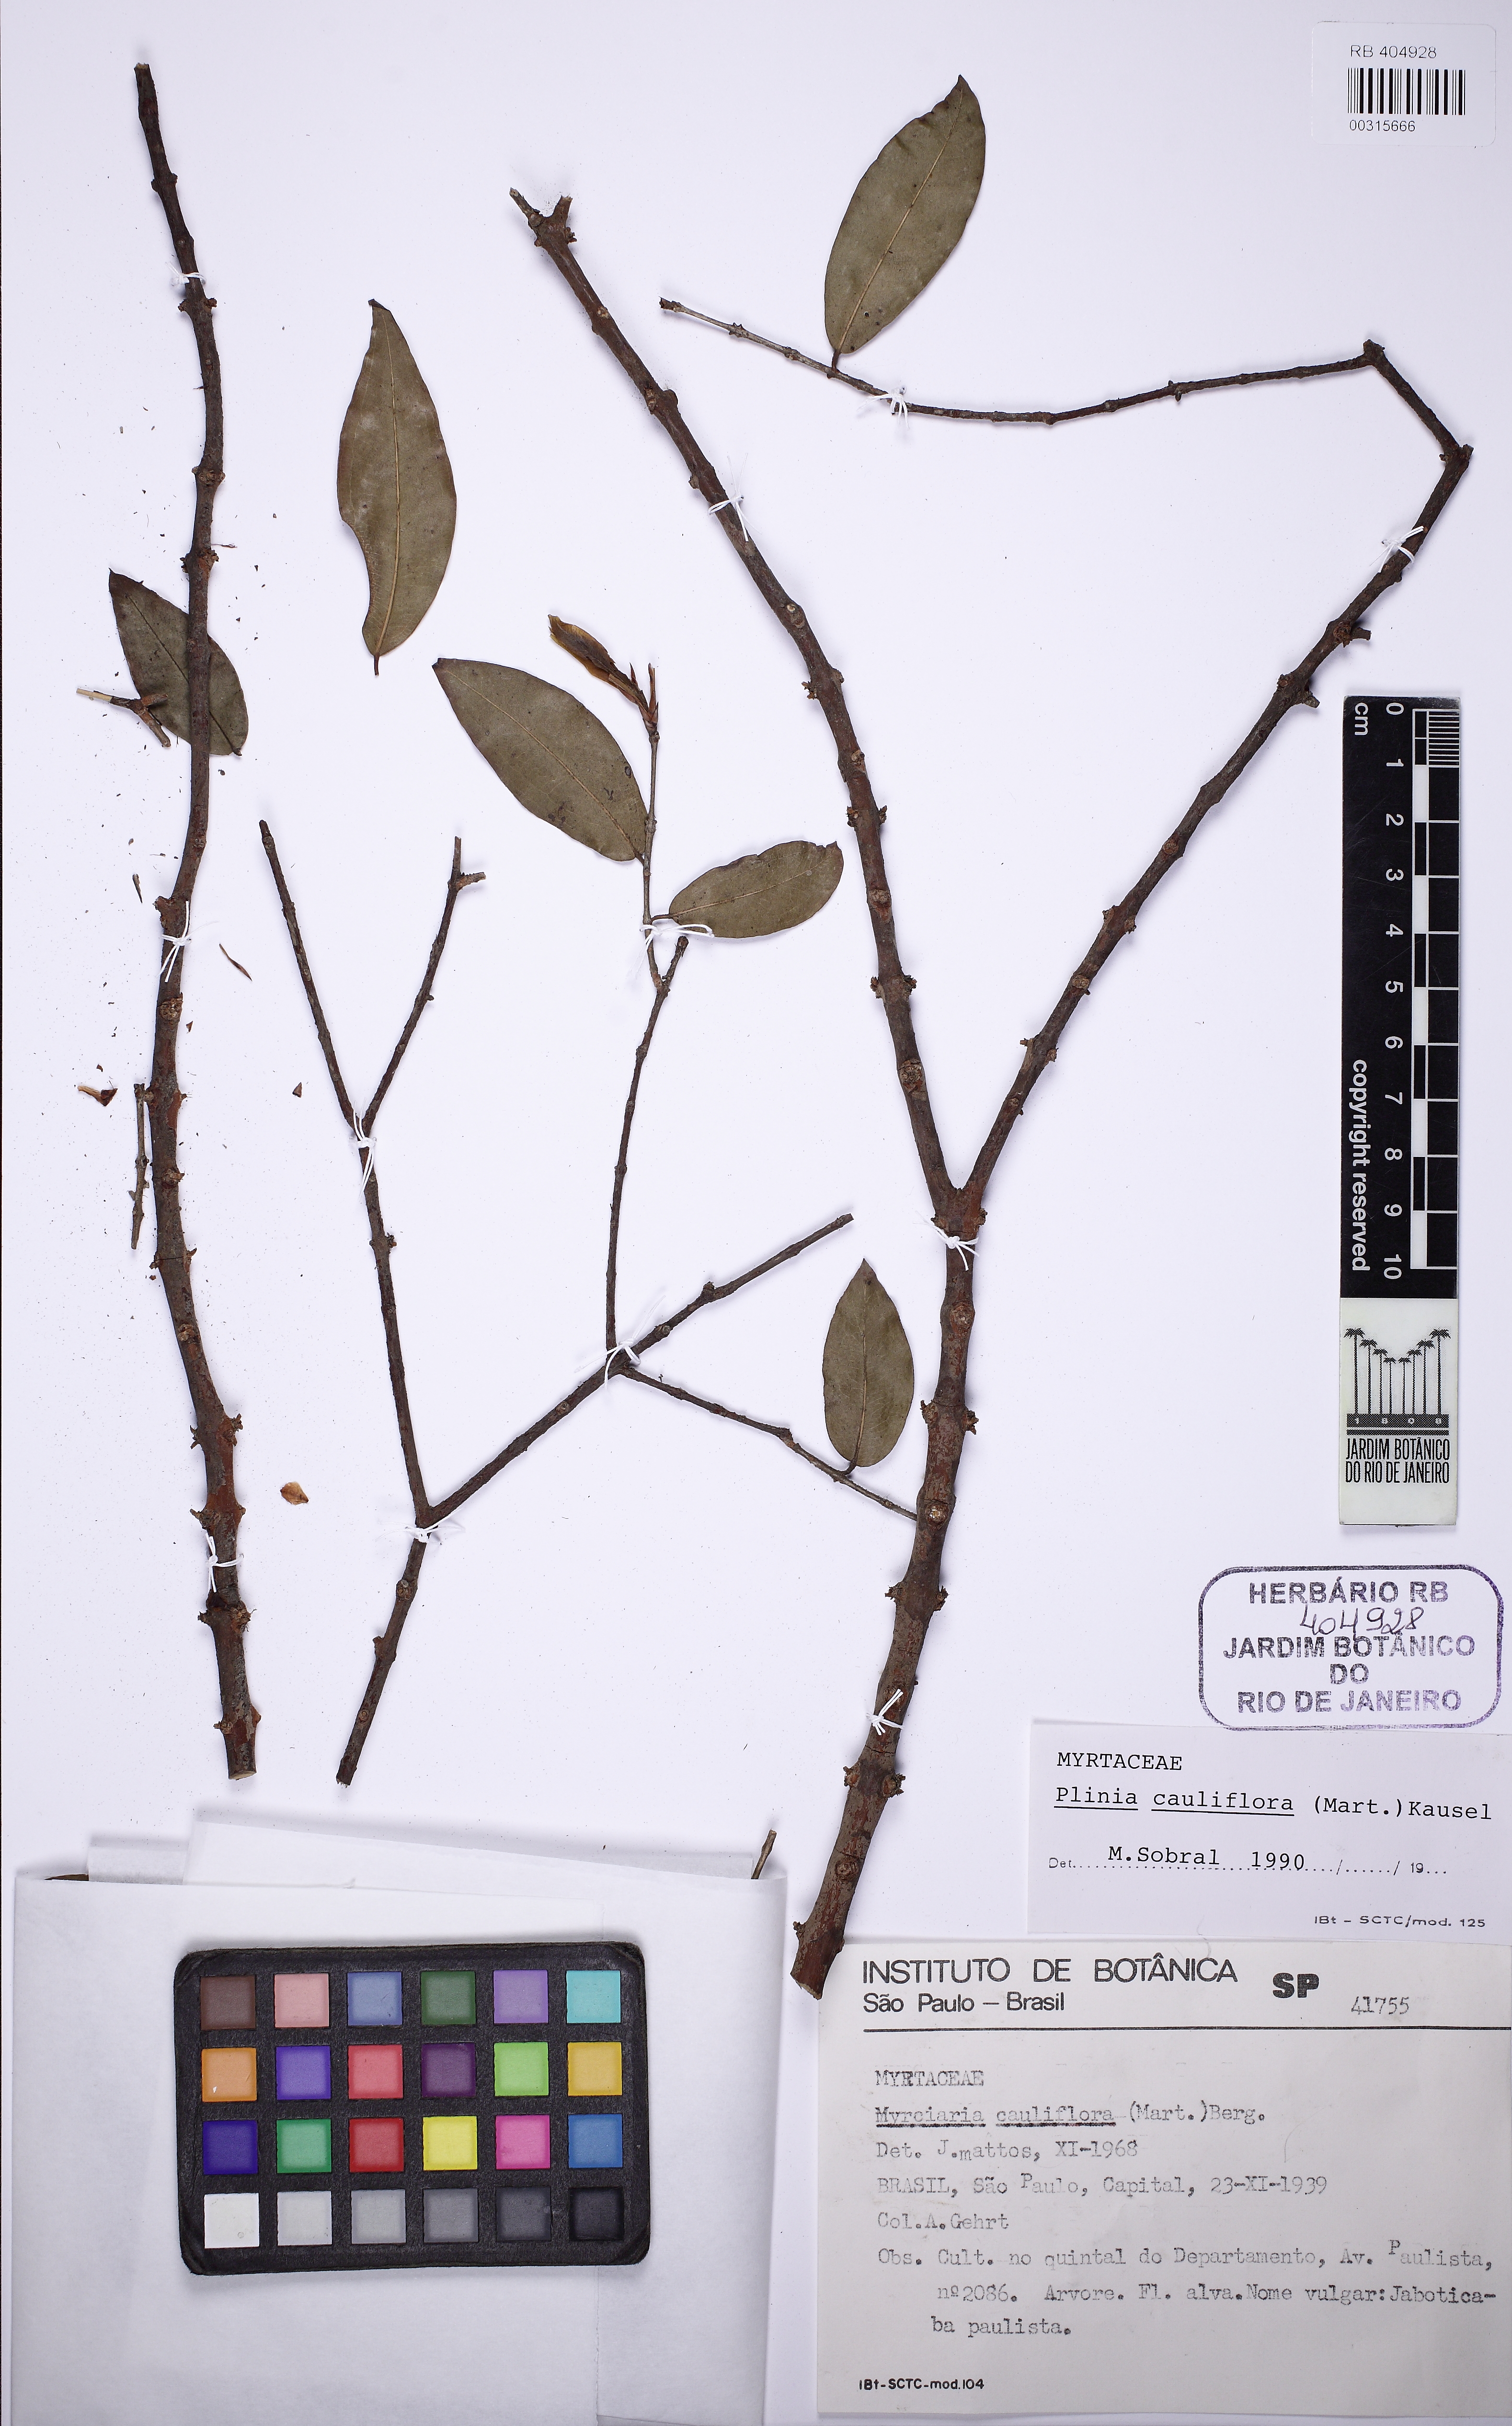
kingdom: Plantae
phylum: Tracheophyta
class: Magnoliopsida
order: Myrtales
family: Myrtaceae
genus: Plinia
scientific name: Plinia cauliflora
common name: Brazilian grapetree
